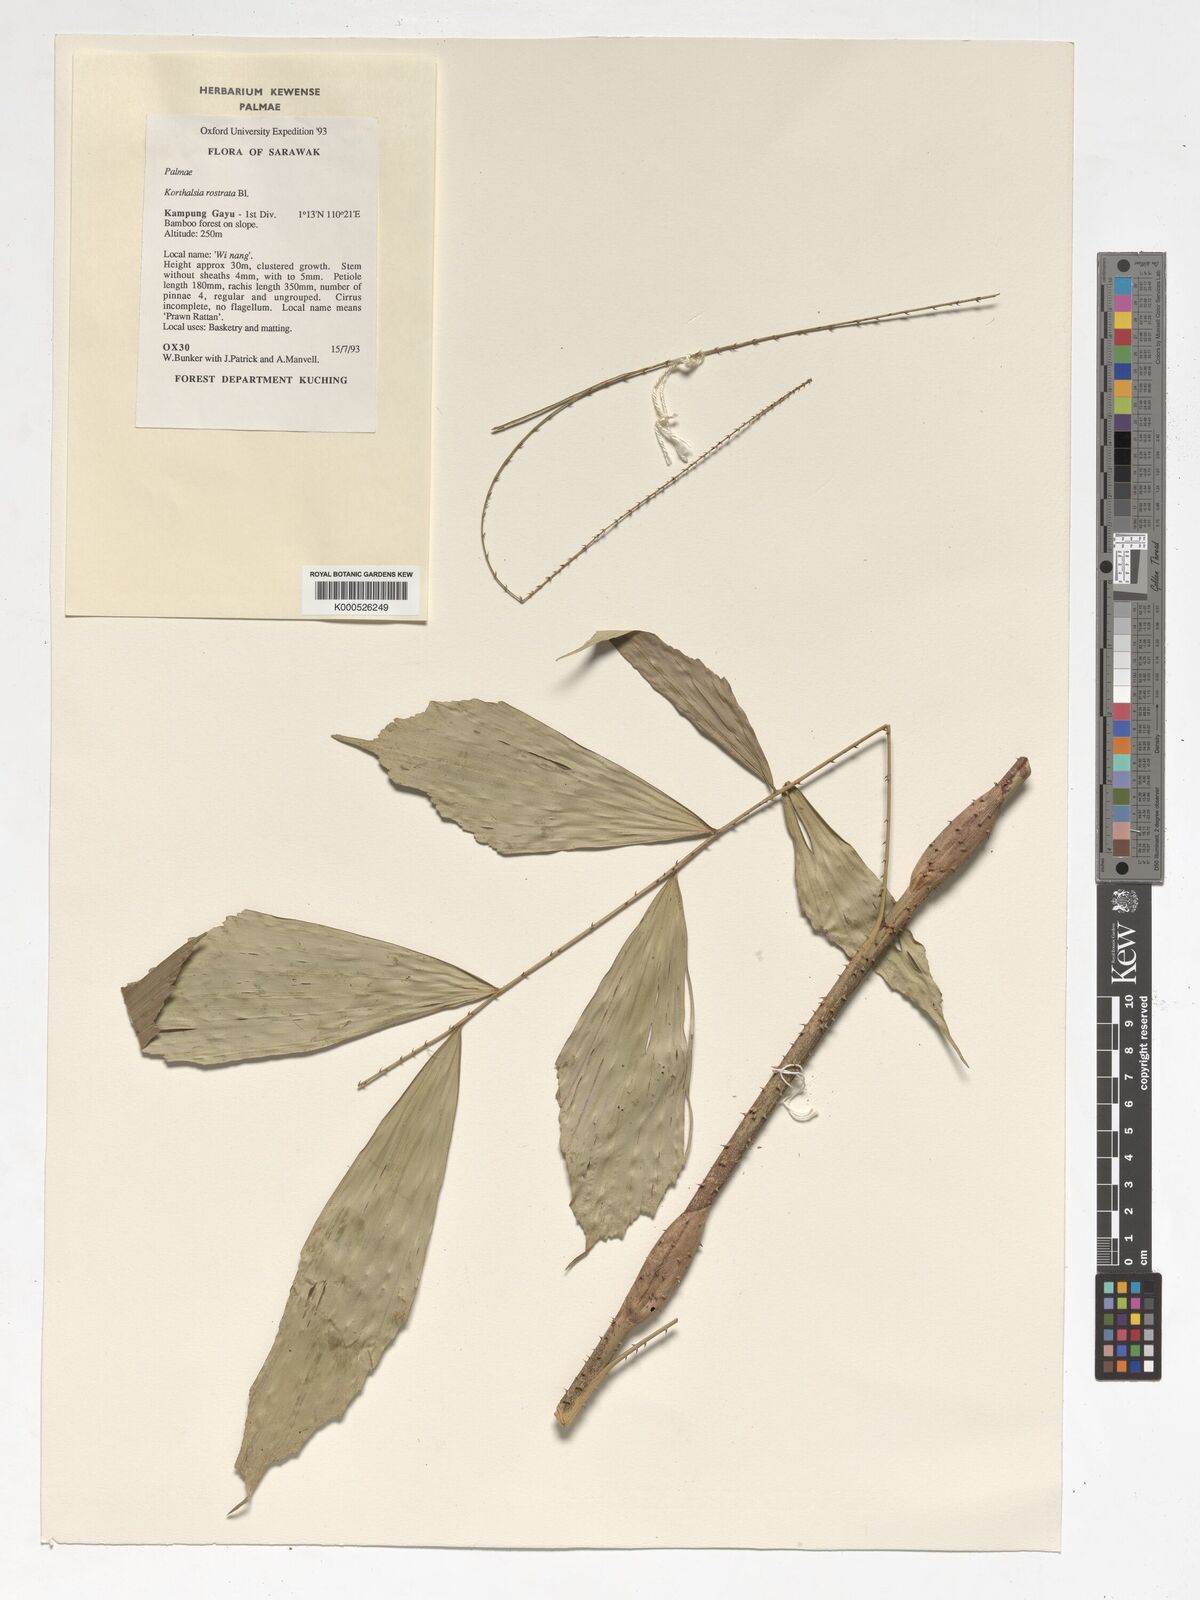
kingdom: Plantae
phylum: Tracheophyta
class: Liliopsida
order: Arecales
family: Arecaceae
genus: Korthalsia
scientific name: Korthalsia rostrata
